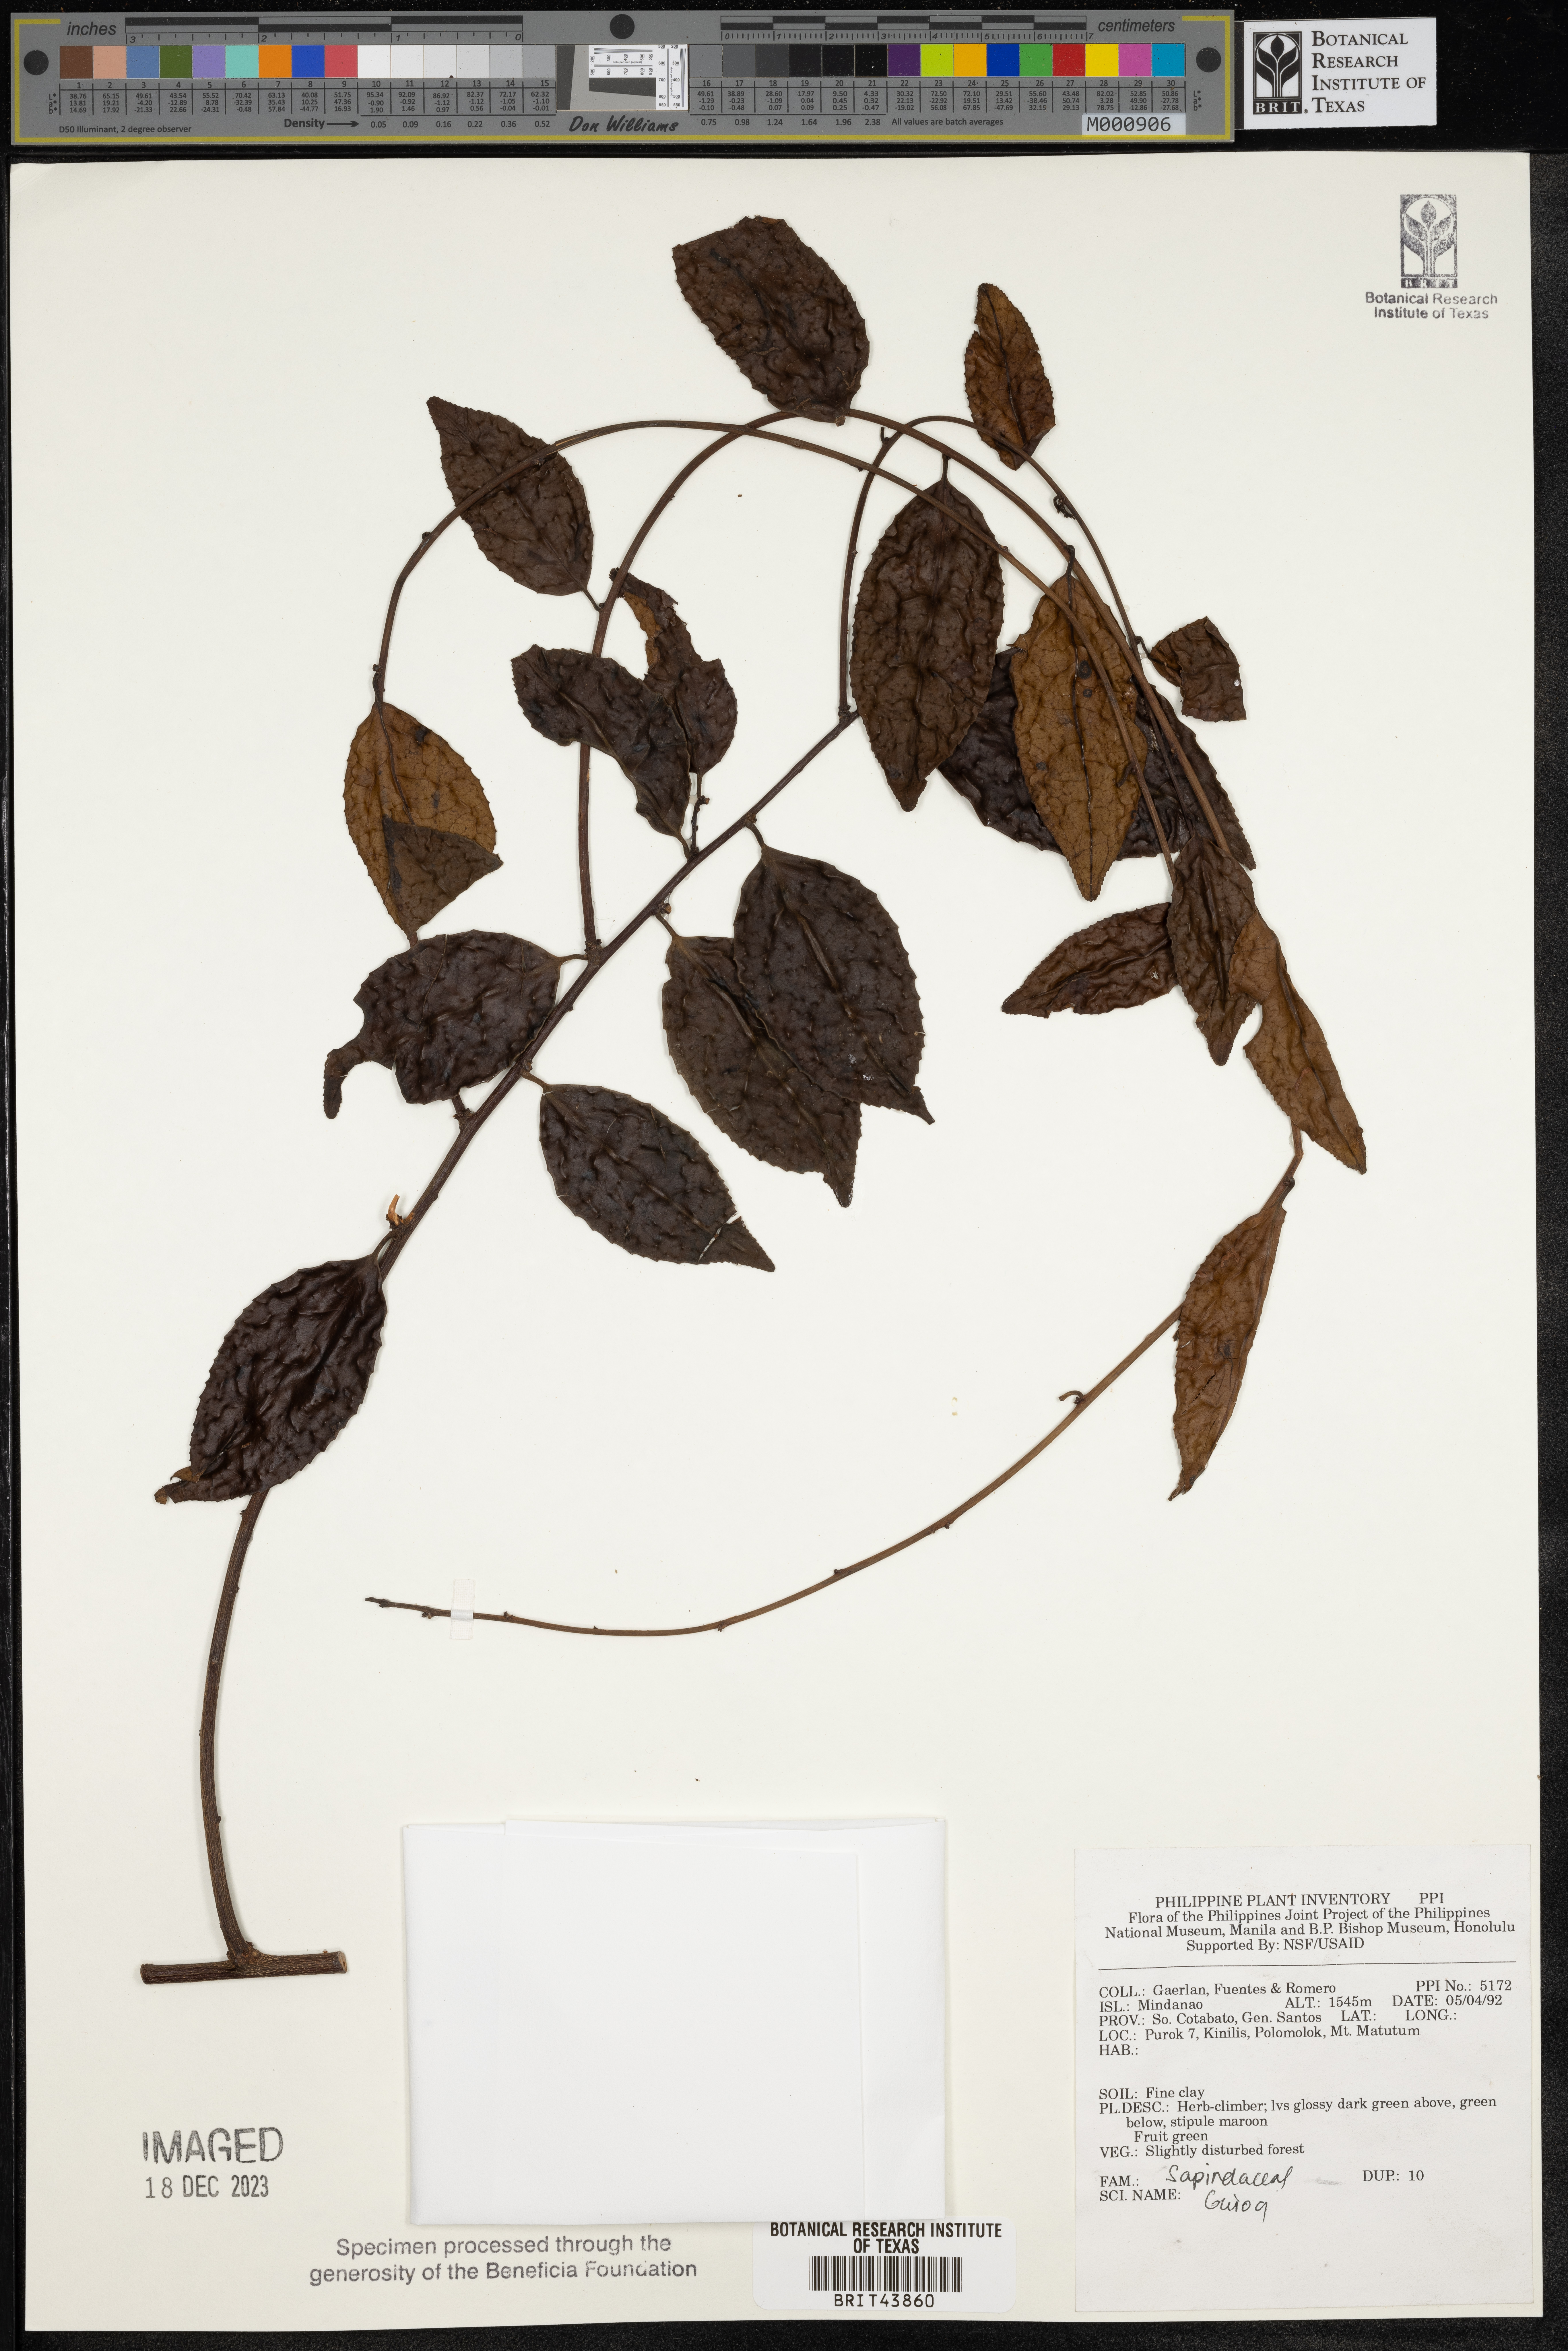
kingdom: Plantae
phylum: Tracheophyta
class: Magnoliopsida
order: Sapindales
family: Sapindaceae
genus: Guioa
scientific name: Guioa
